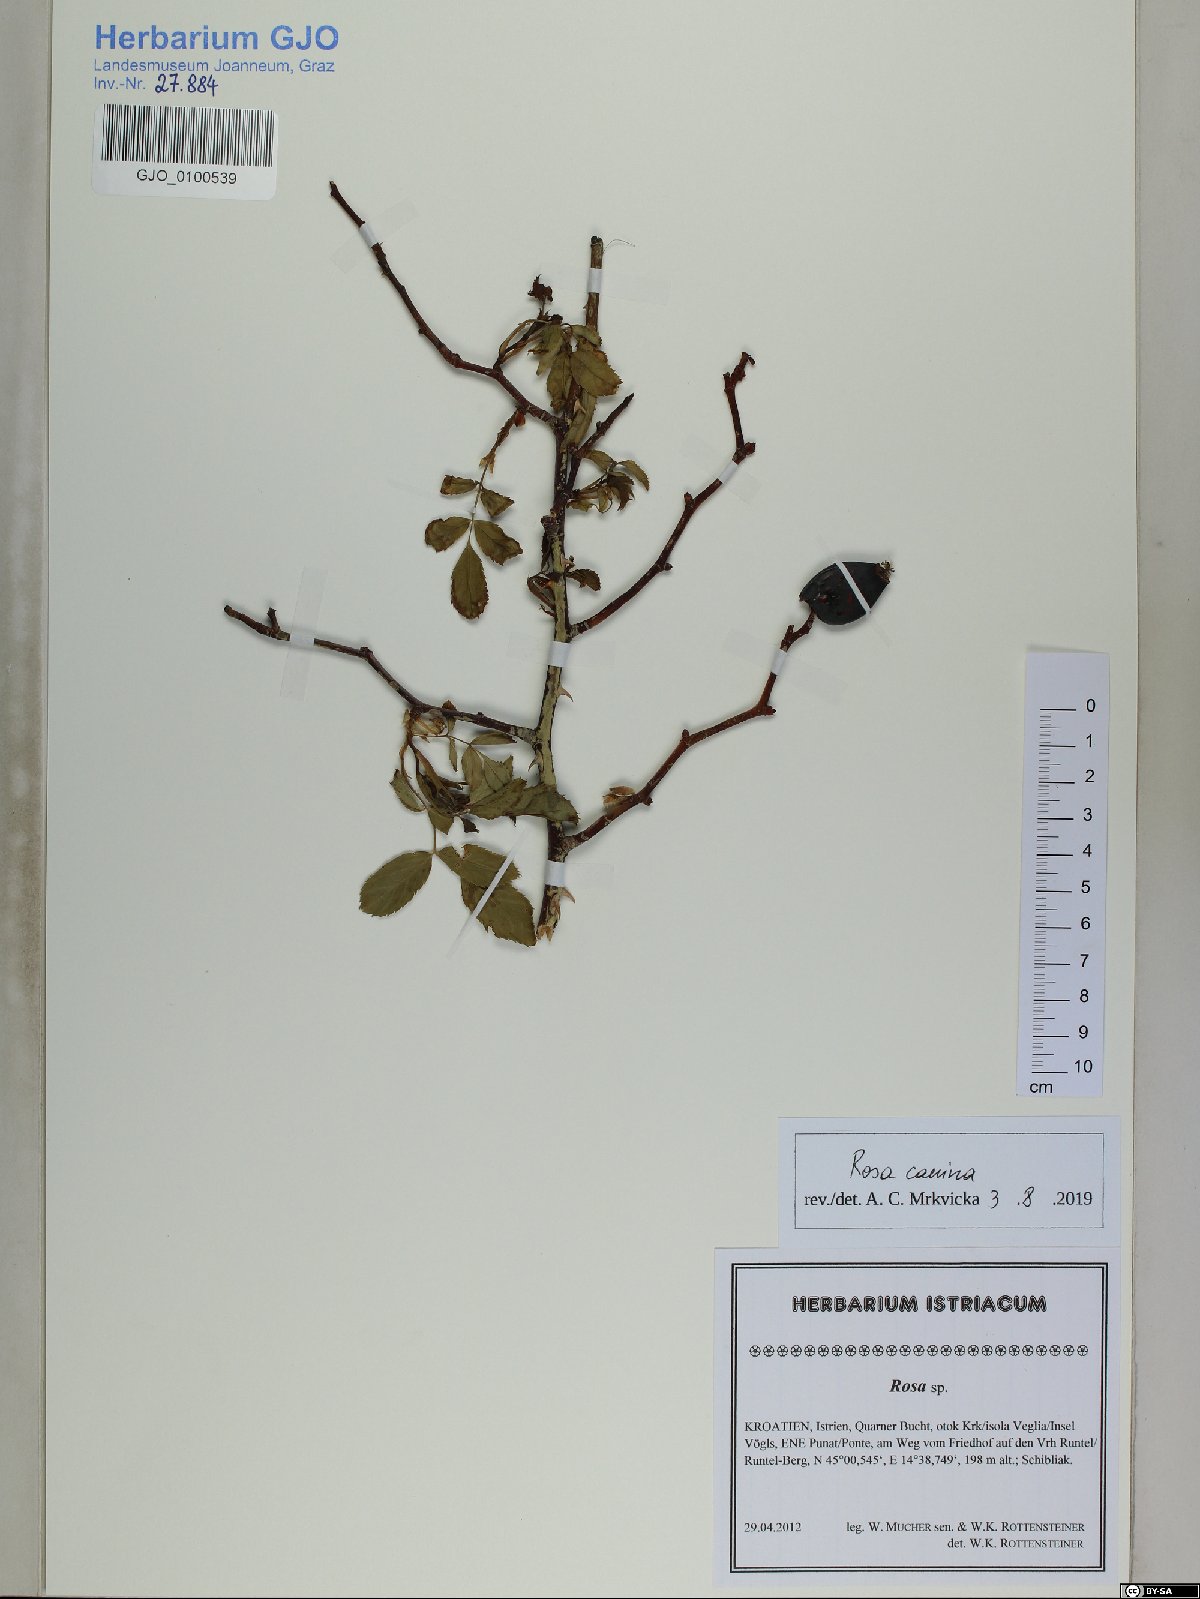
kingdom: Plantae
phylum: Tracheophyta
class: Magnoliopsida
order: Rosales
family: Rosaceae
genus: Rosa
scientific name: Rosa canina
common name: Dog rose
